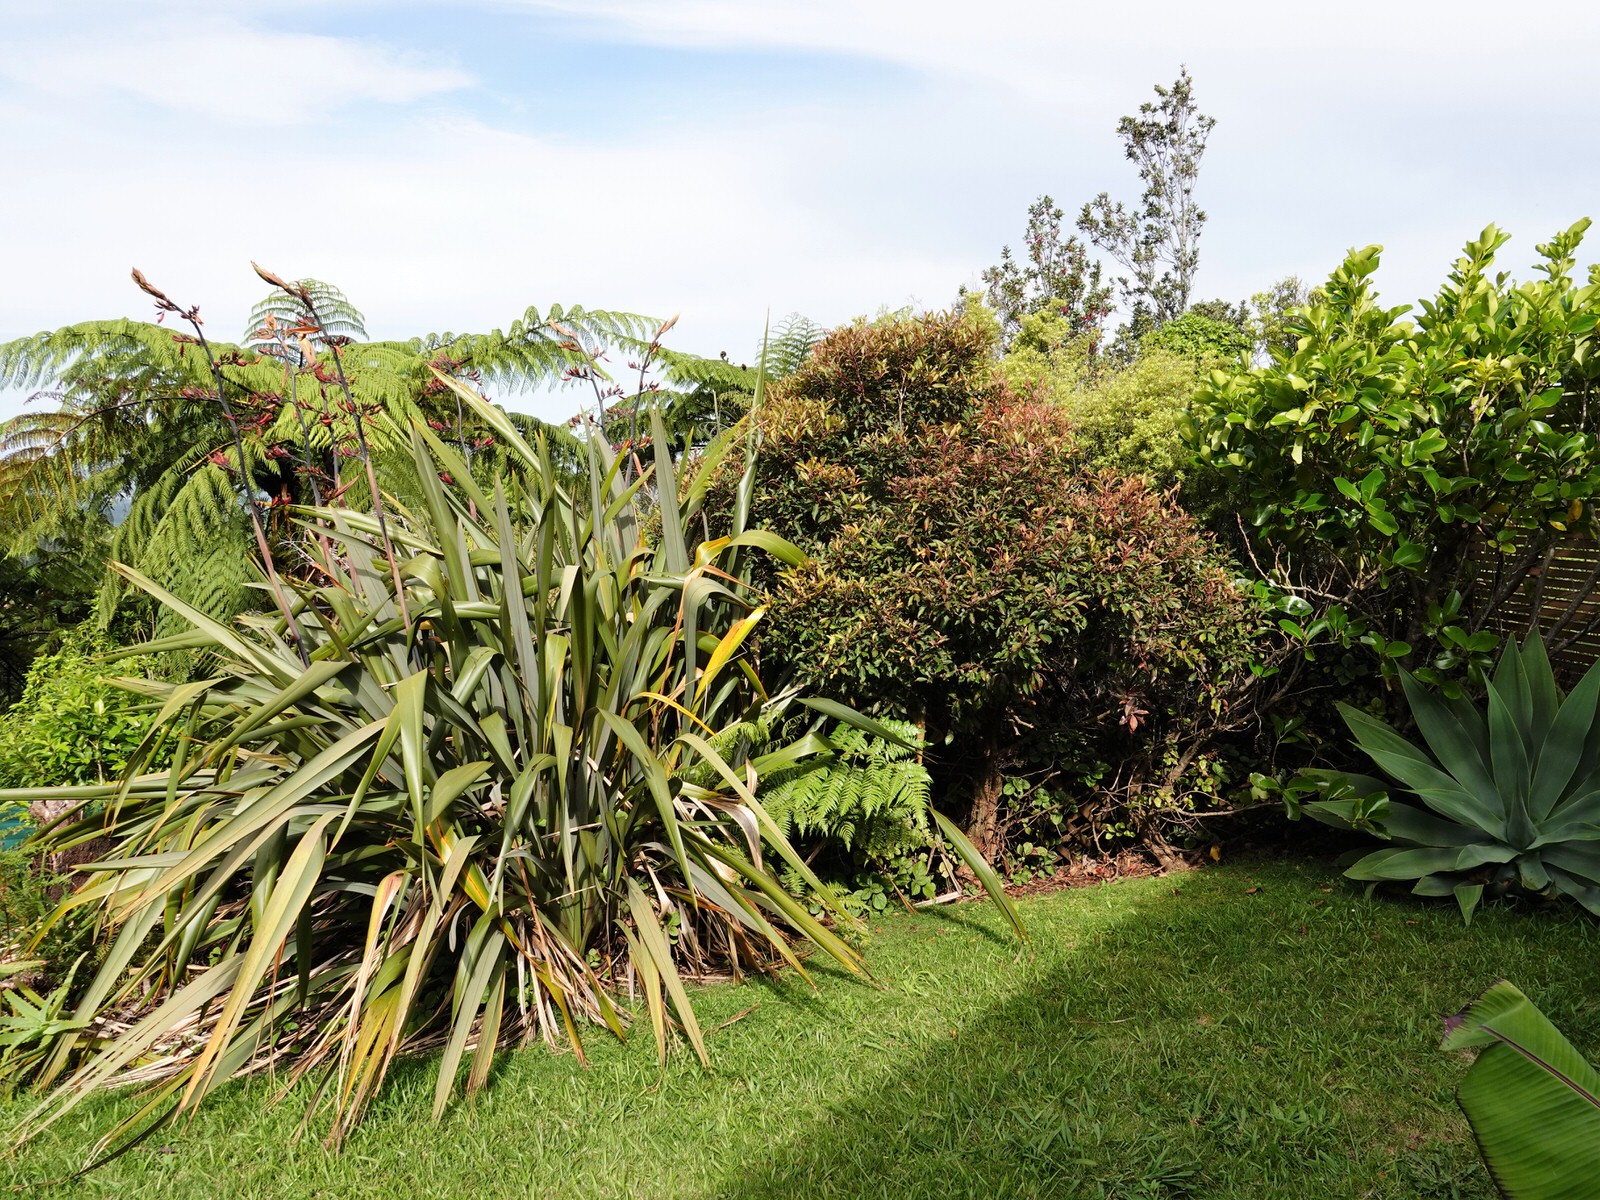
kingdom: Plantae
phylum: Tracheophyta
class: Magnoliopsida
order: Myrtales
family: Myrtaceae
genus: Metrosideros
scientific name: Metrosideros collina
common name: Vunga
